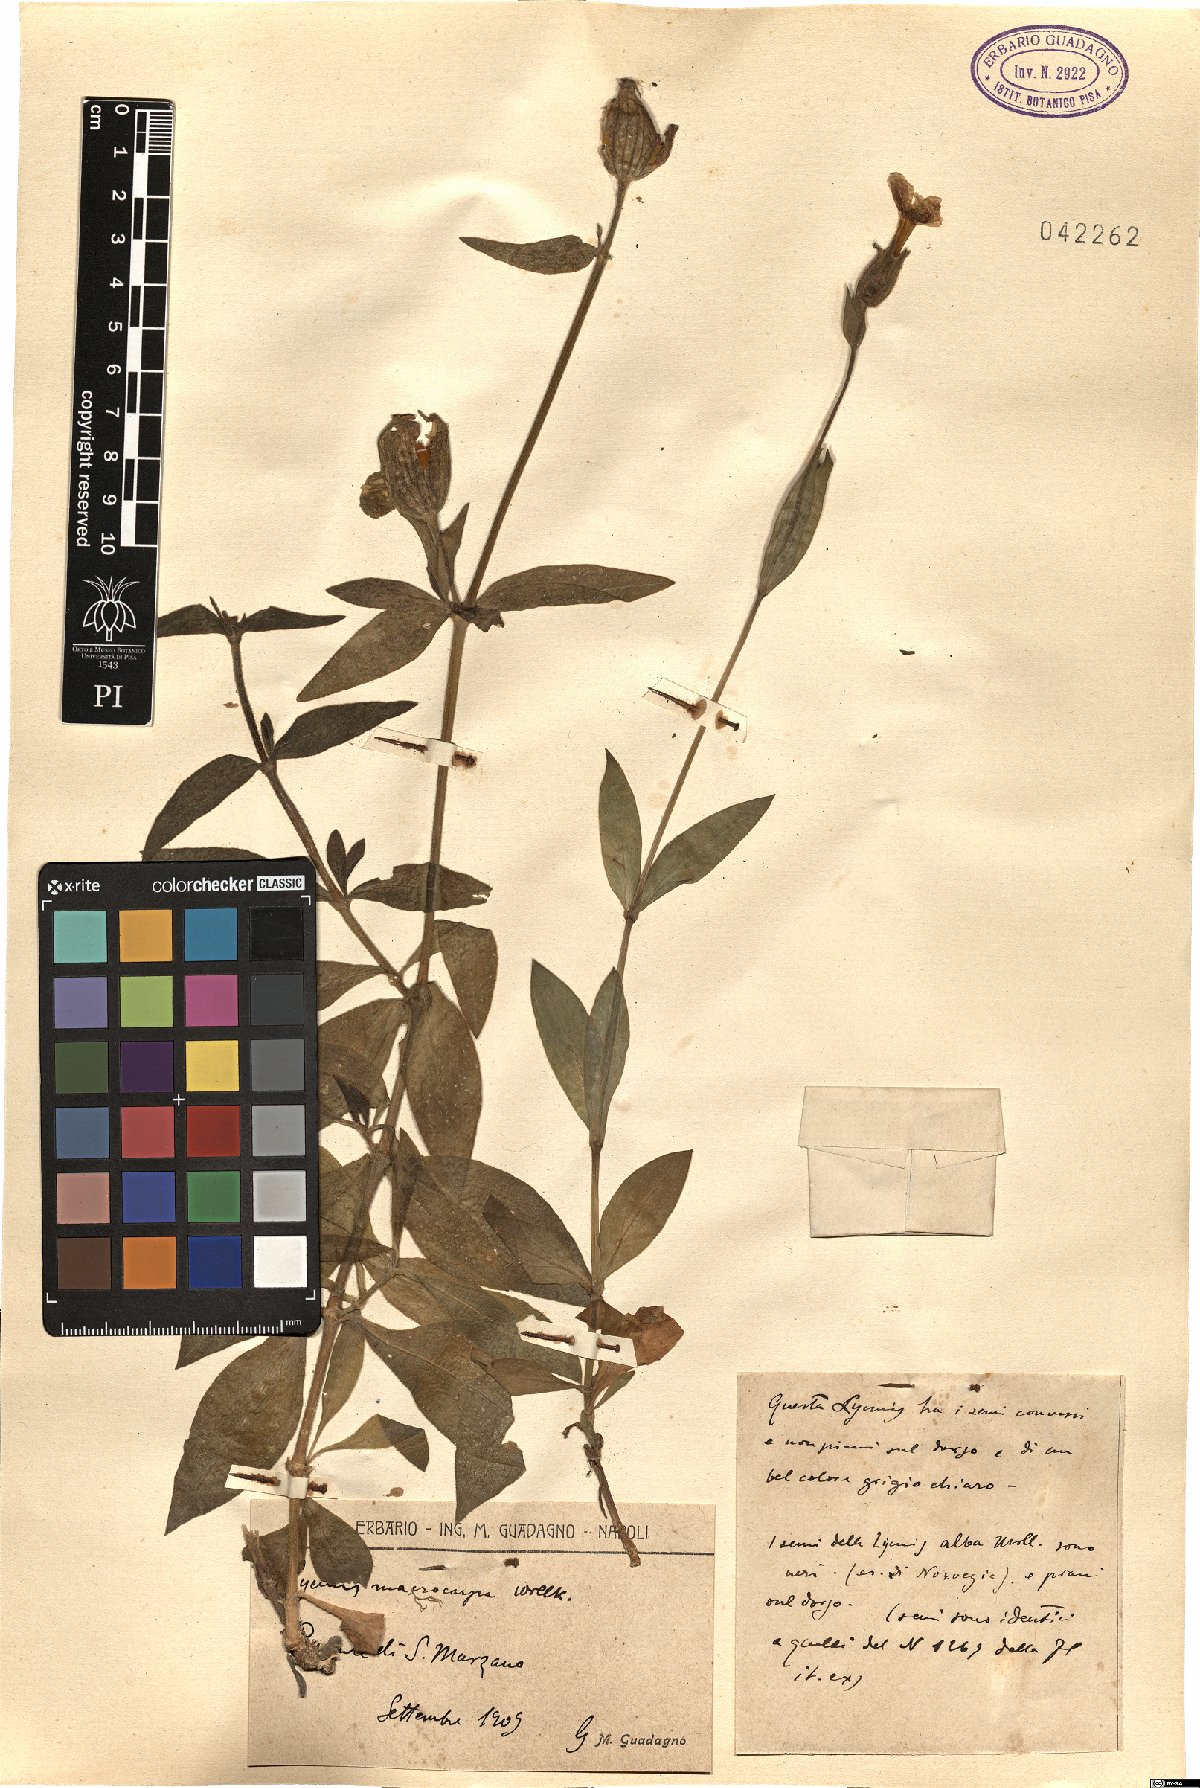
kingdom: Plantae
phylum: Tracheophyta
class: Magnoliopsida
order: Caryophyllales
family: Caryophyllaceae
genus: Silene
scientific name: Silene latifolia
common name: White campion
